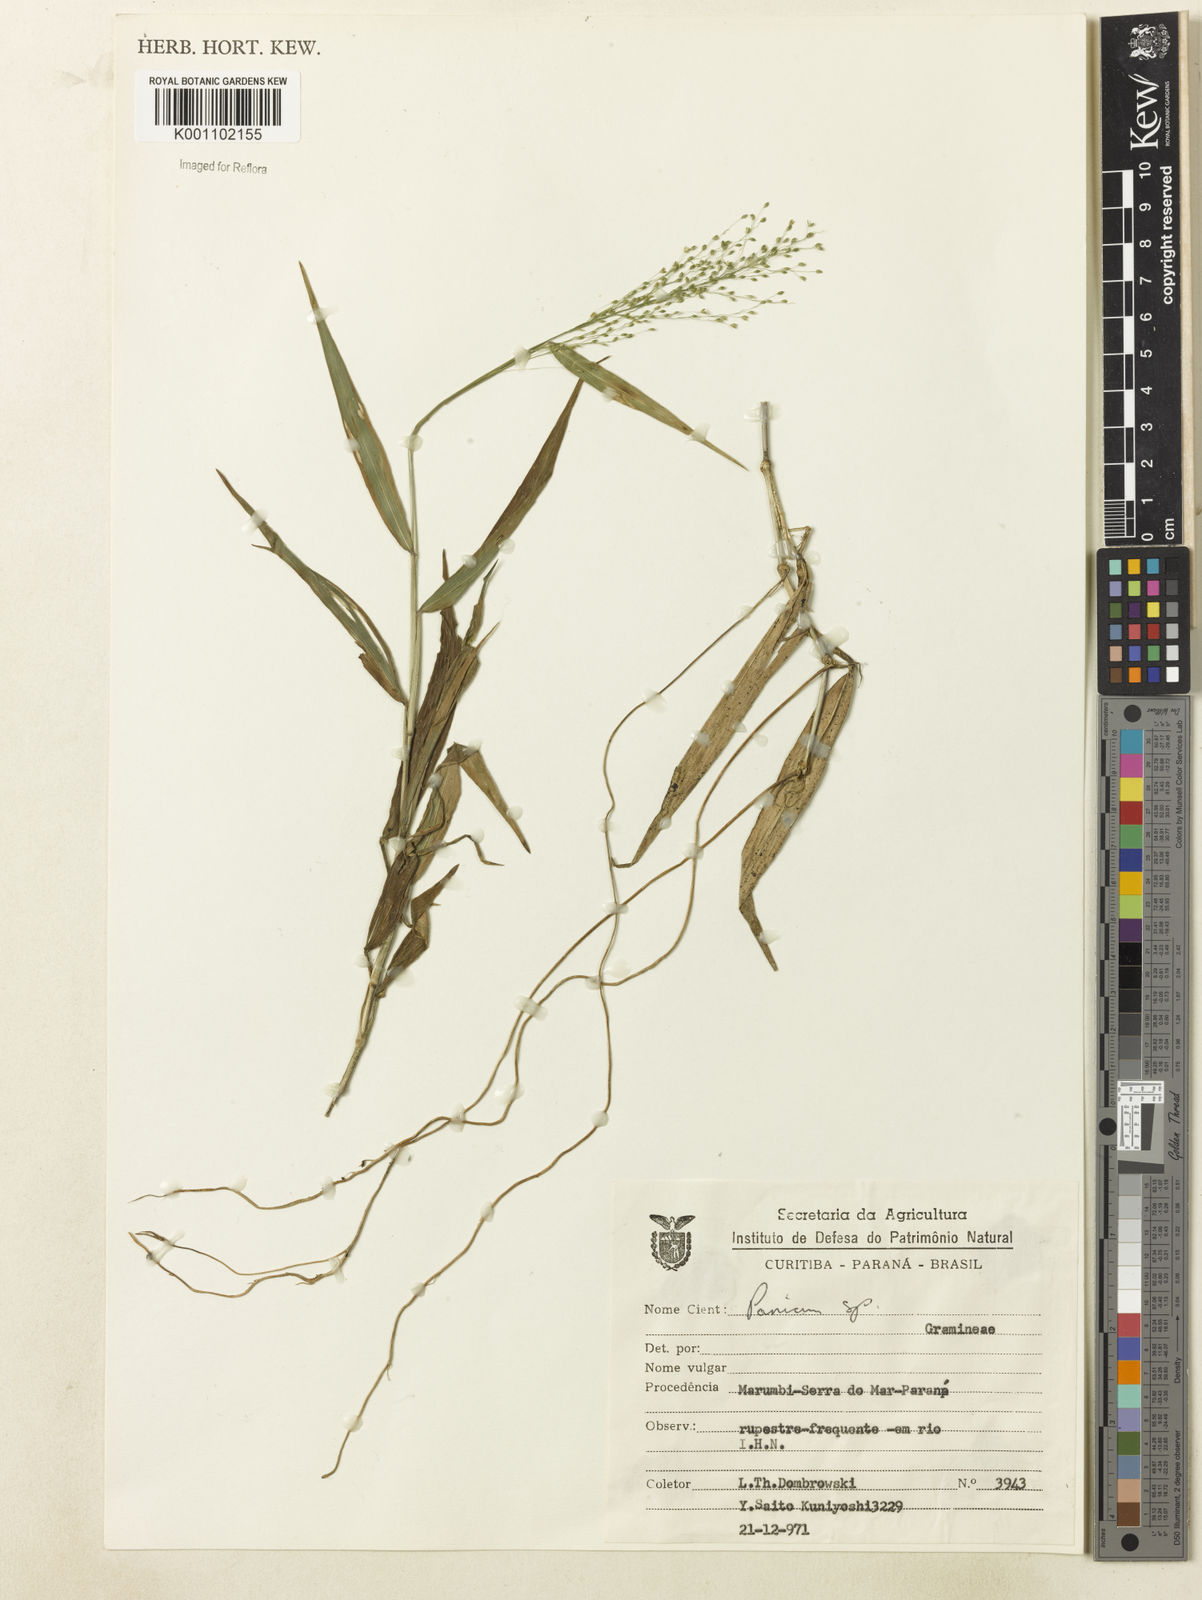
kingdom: Plantae
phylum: Tracheophyta
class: Liliopsida
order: Poales
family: Poaceae
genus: Dichanthelium
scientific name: Dichanthelium hebotes
